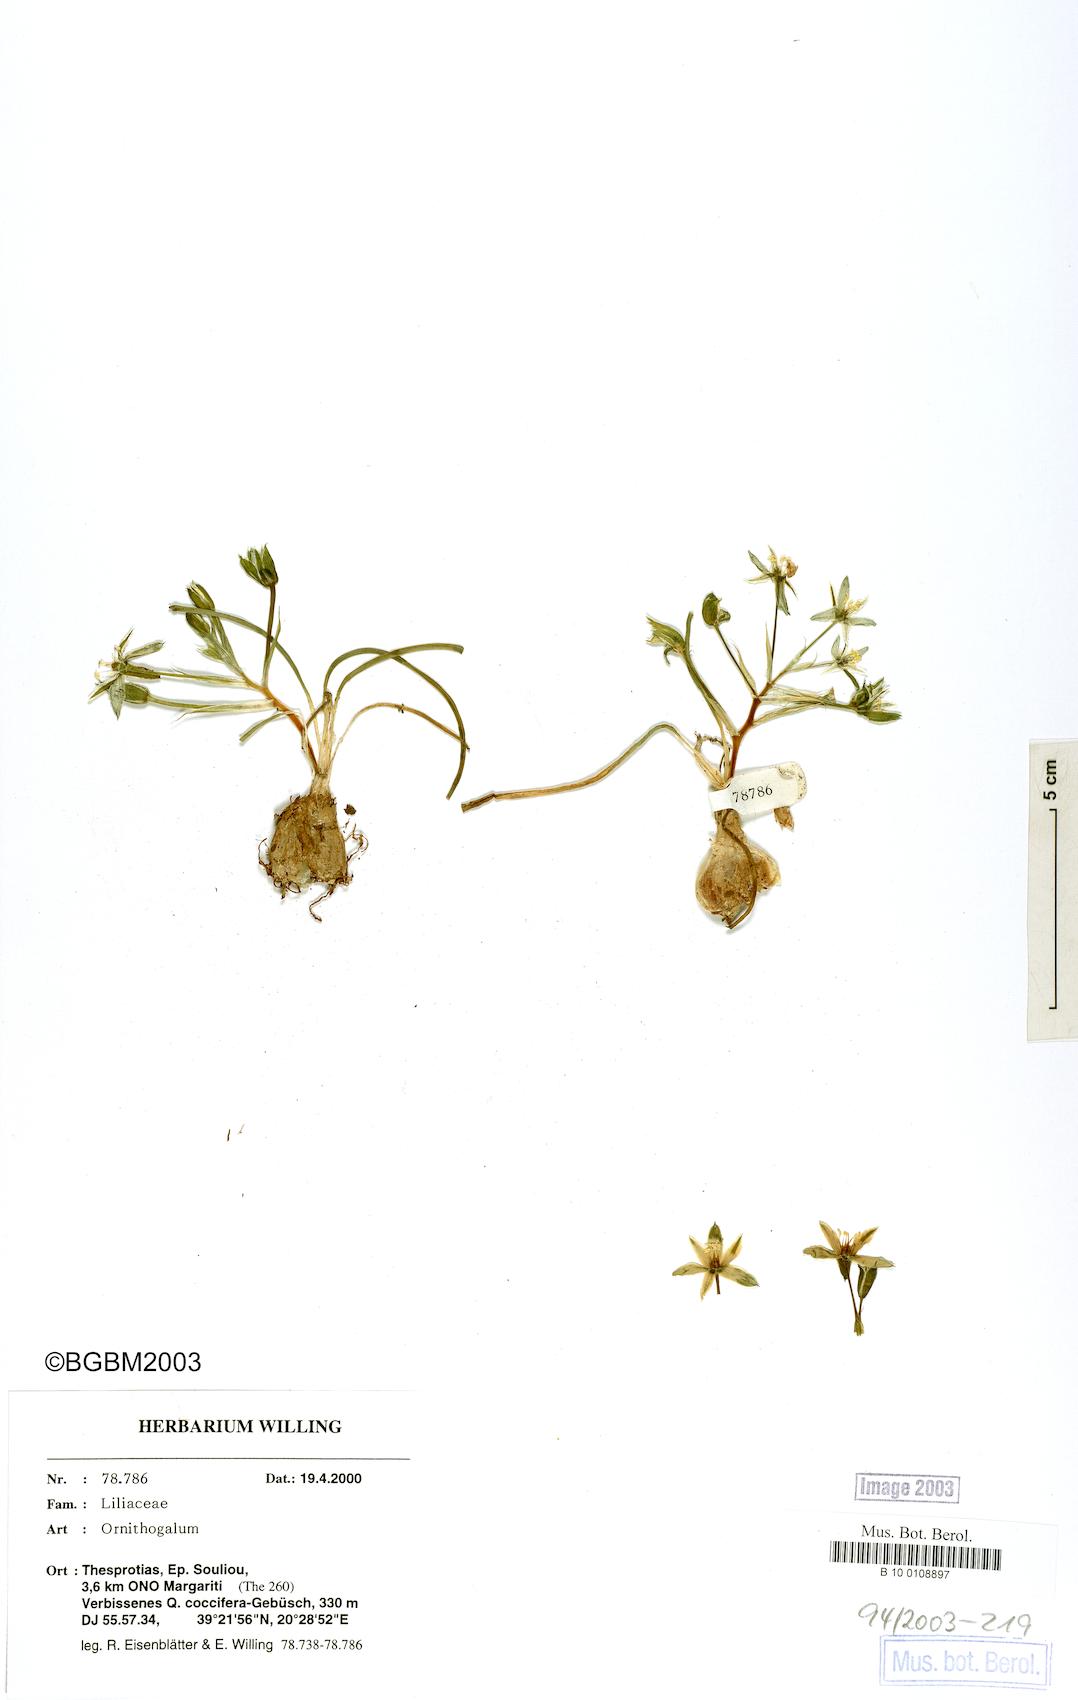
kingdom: Plantae
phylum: Tracheophyta
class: Liliopsida
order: Asparagales
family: Asparagaceae
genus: Ornithogalum
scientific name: Ornithogalum
